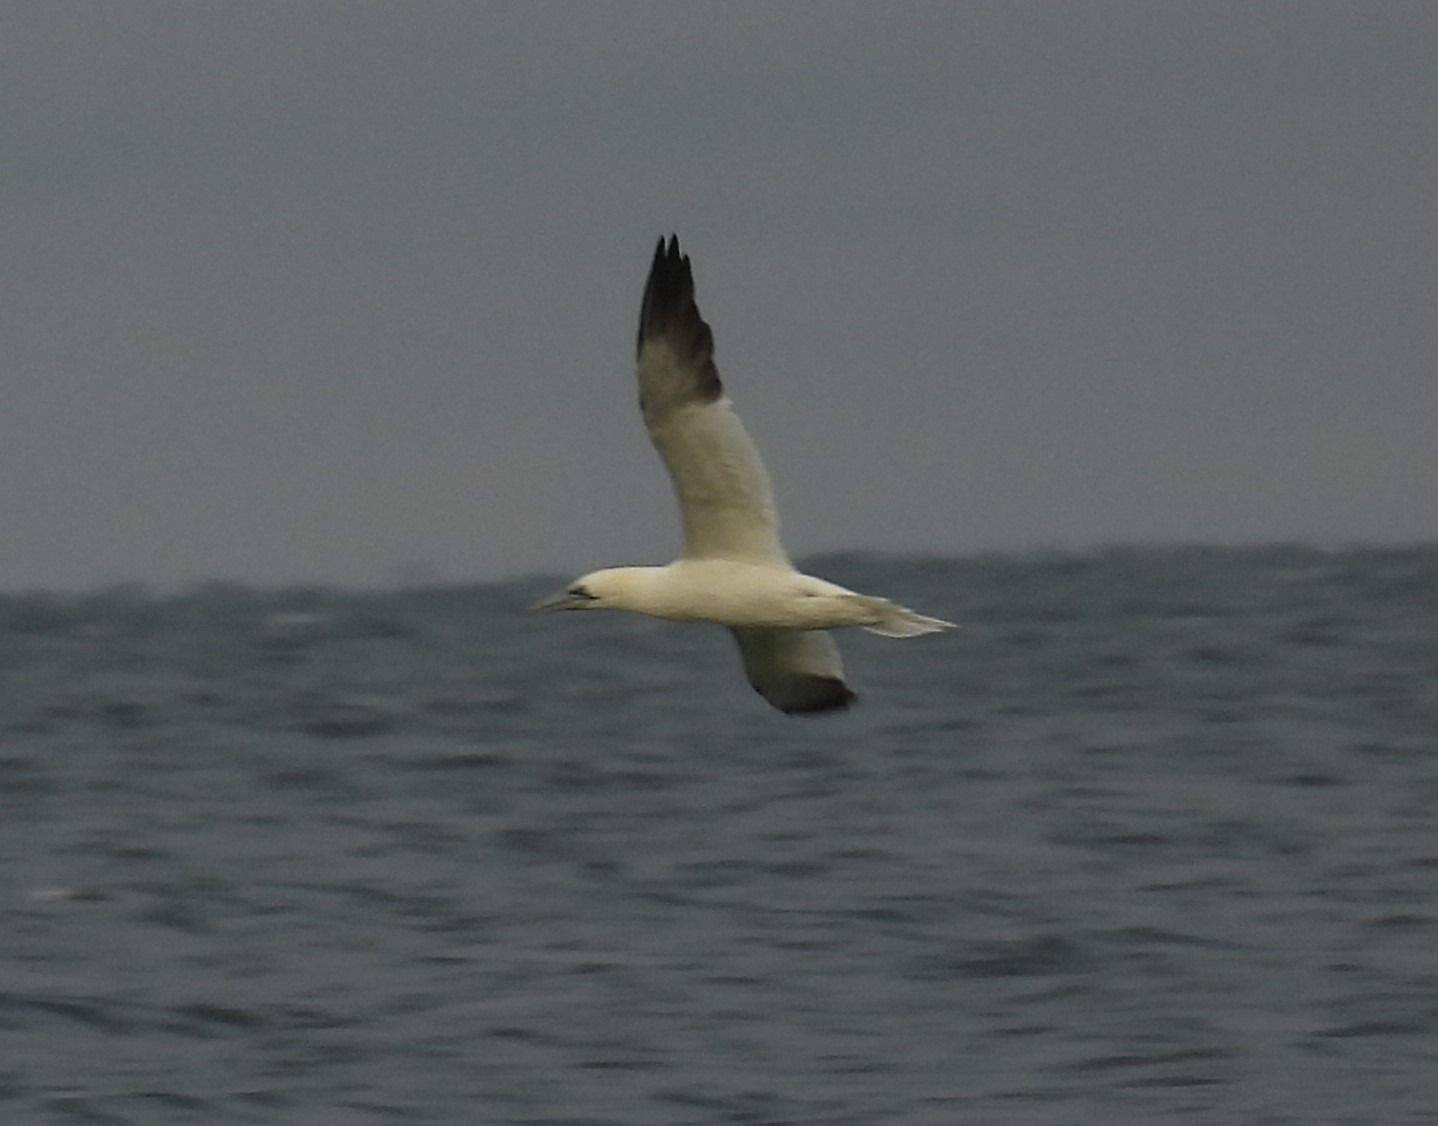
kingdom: Animalia
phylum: Chordata
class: Aves
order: Suliformes
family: Sulidae
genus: Morus
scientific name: Morus bassanus
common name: Sule
